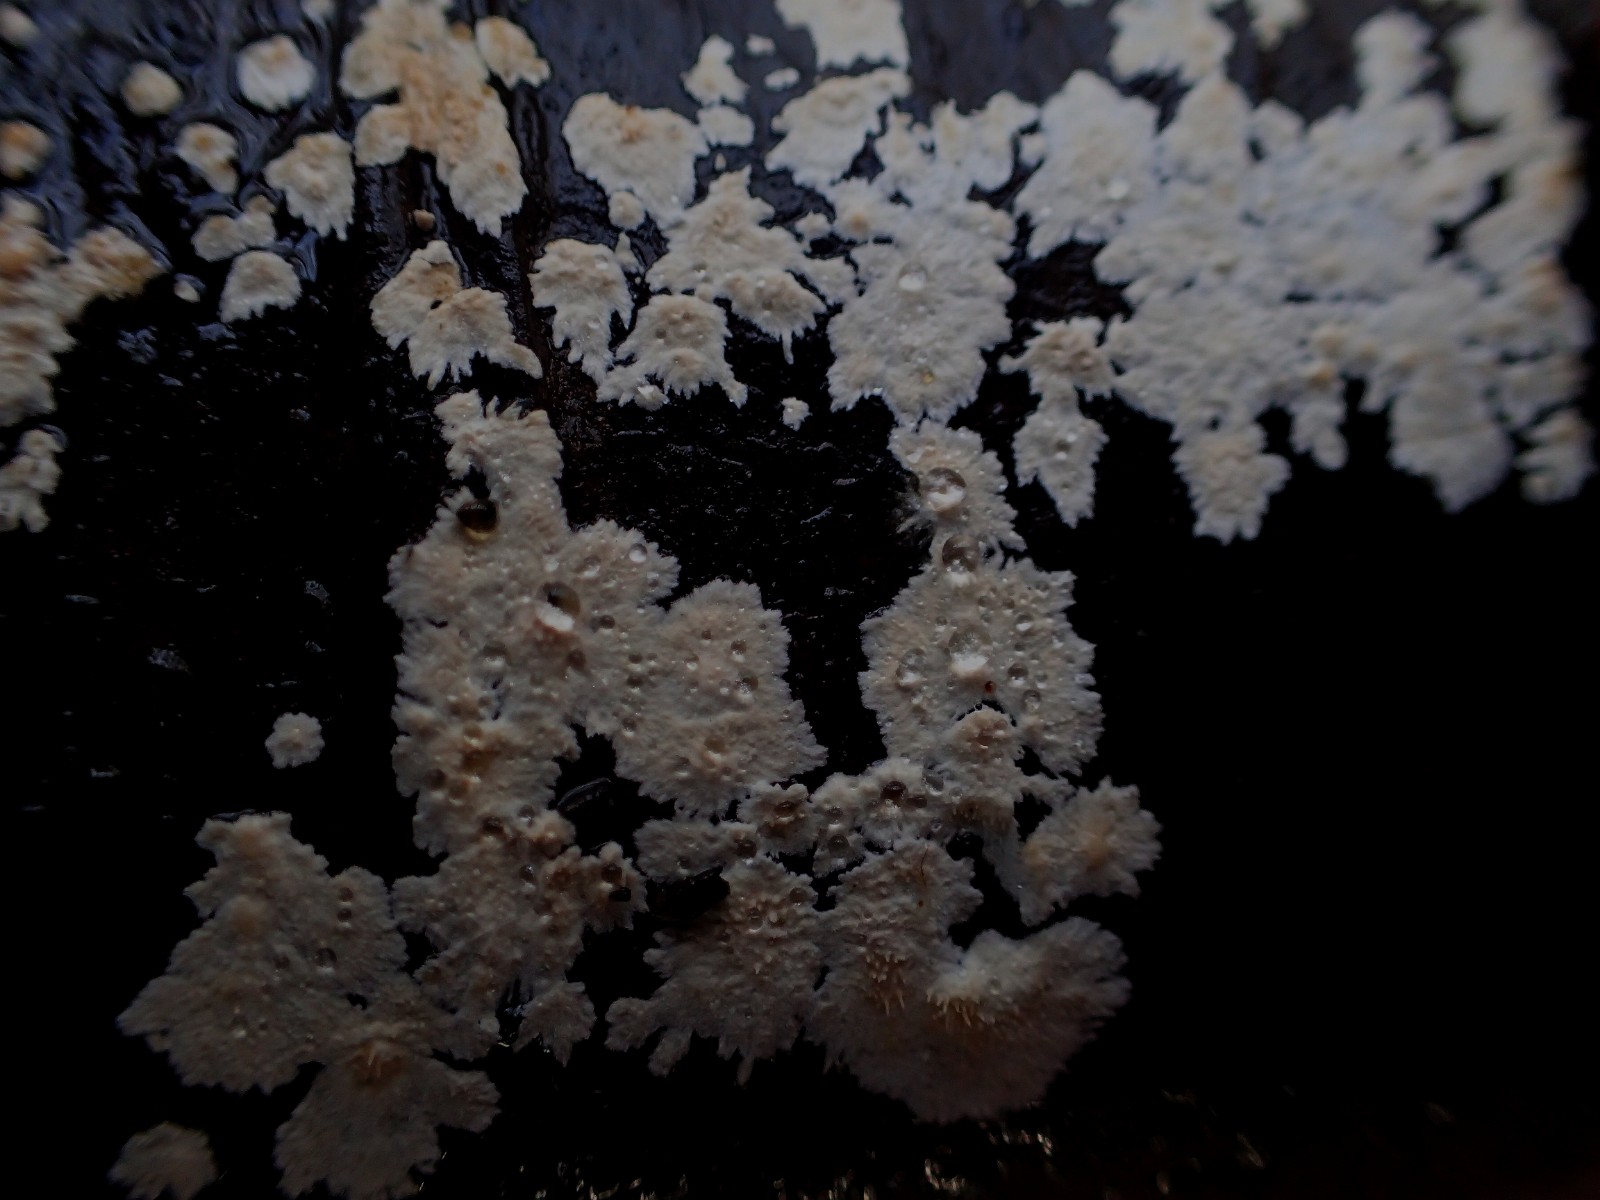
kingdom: Fungi
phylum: Basidiomycota
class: Agaricomycetes
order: Agaricales
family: Physalacriaceae
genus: Cylindrobasidium
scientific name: Cylindrobasidium evolvens
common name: sprækkehinde
